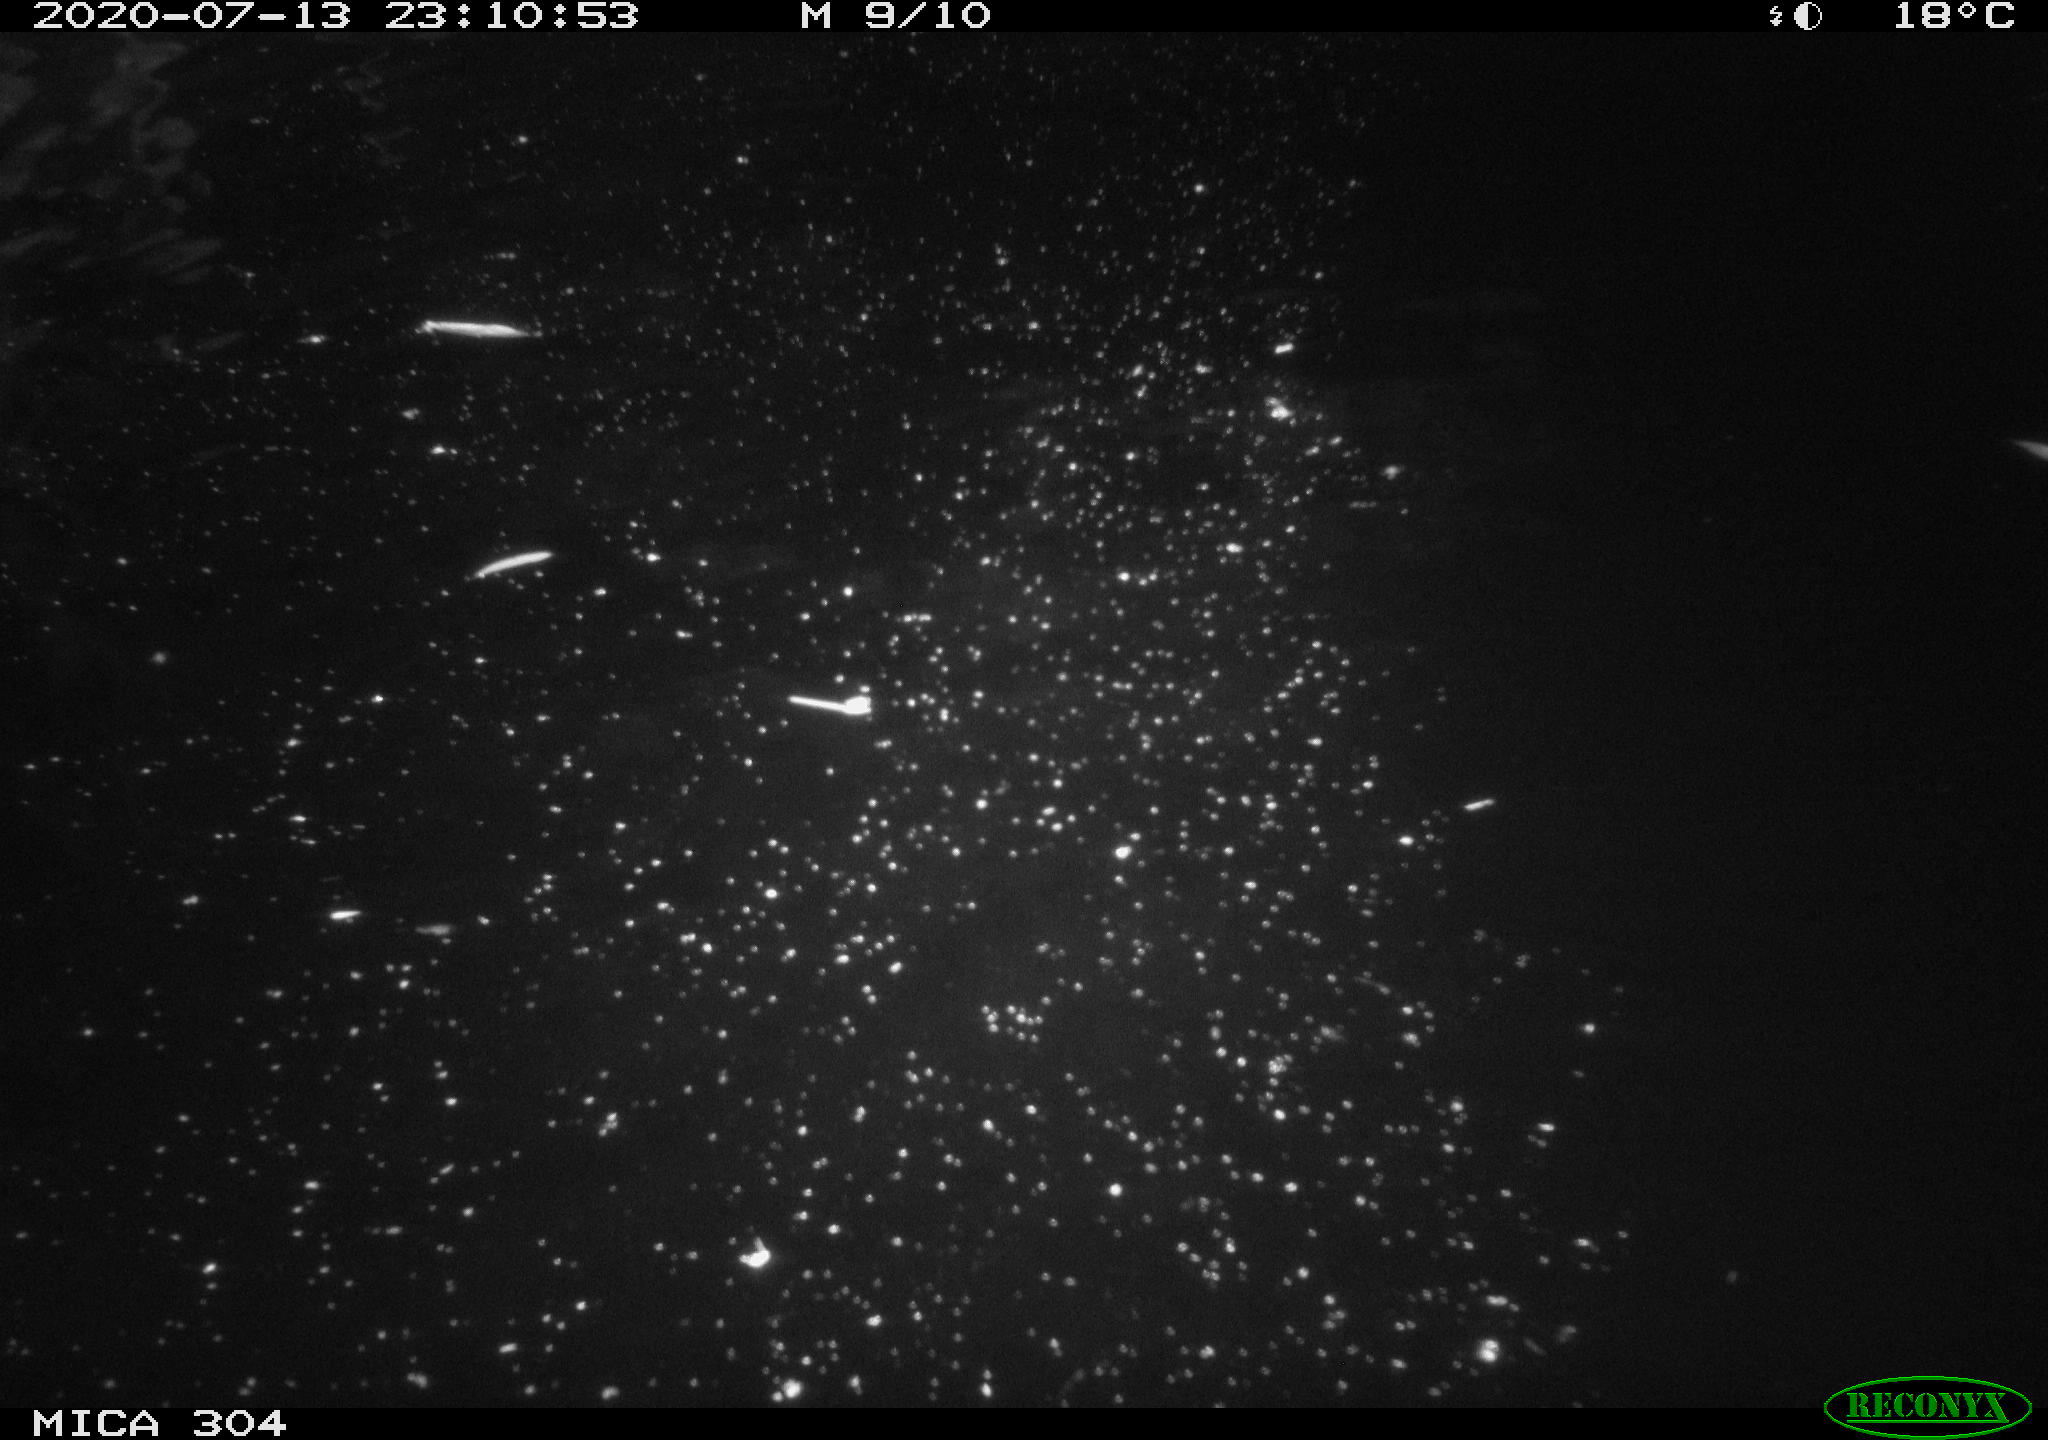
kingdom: Animalia
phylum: Chordata
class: Mammalia
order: Rodentia
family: Cricetidae
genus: Ondatra
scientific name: Ondatra zibethicus
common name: Muskrat
